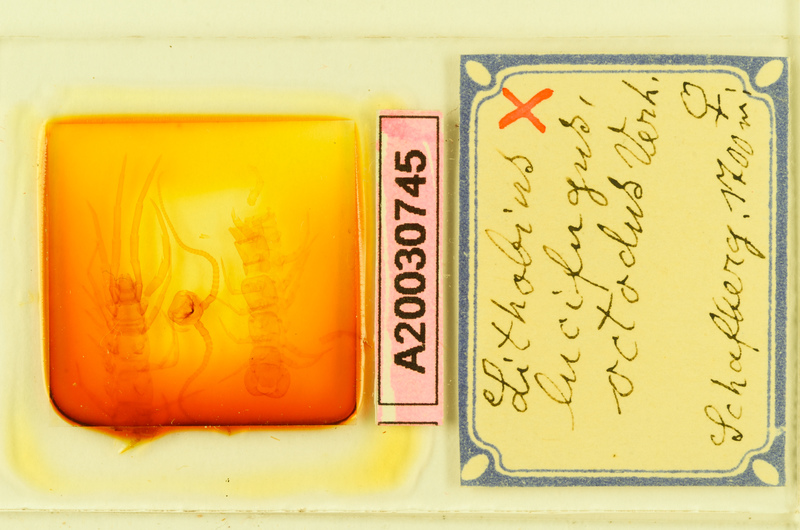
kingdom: Animalia
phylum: Arthropoda
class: Chilopoda
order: Lithobiomorpha
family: Lithobiidae
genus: Lithobius
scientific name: Lithobius lucifugus
